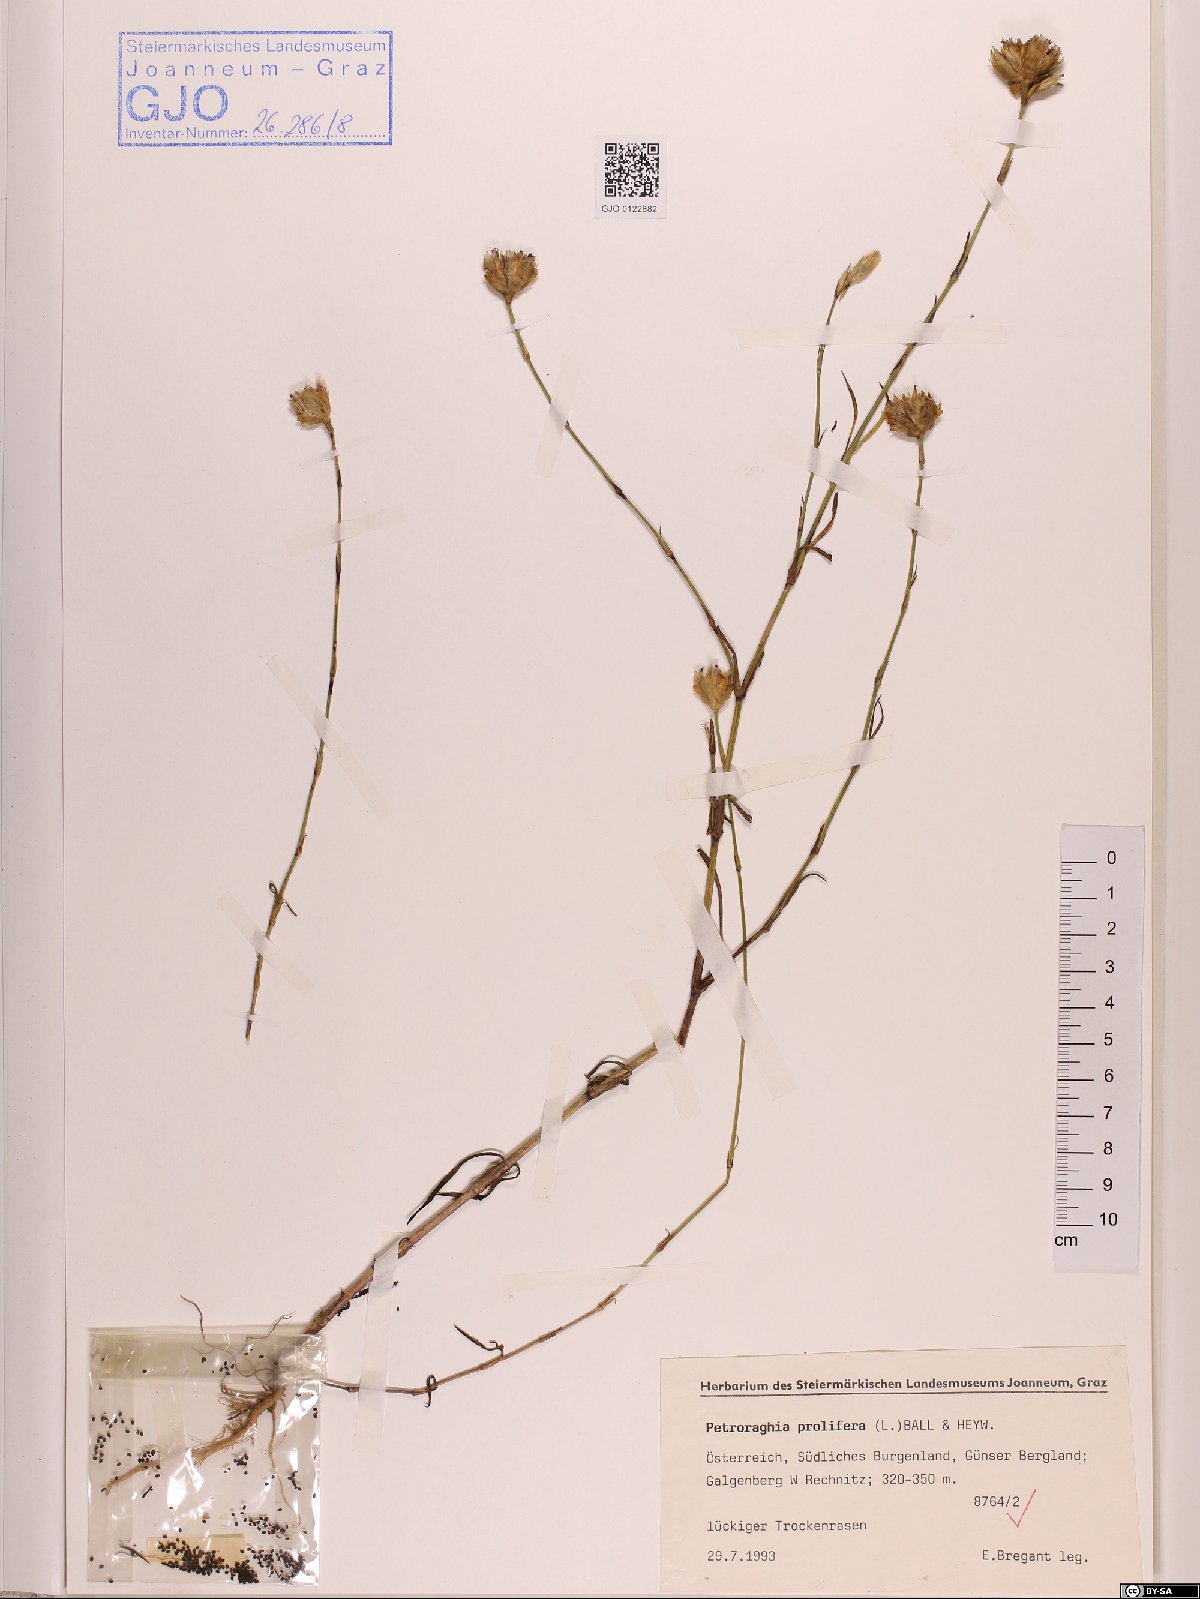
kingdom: Plantae
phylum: Tracheophyta
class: Magnoliopsida
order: Caryophyllales
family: Caryophyllaceae
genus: Petrorhagia
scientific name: Petrorhagia prolifera
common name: Proliferous pink
